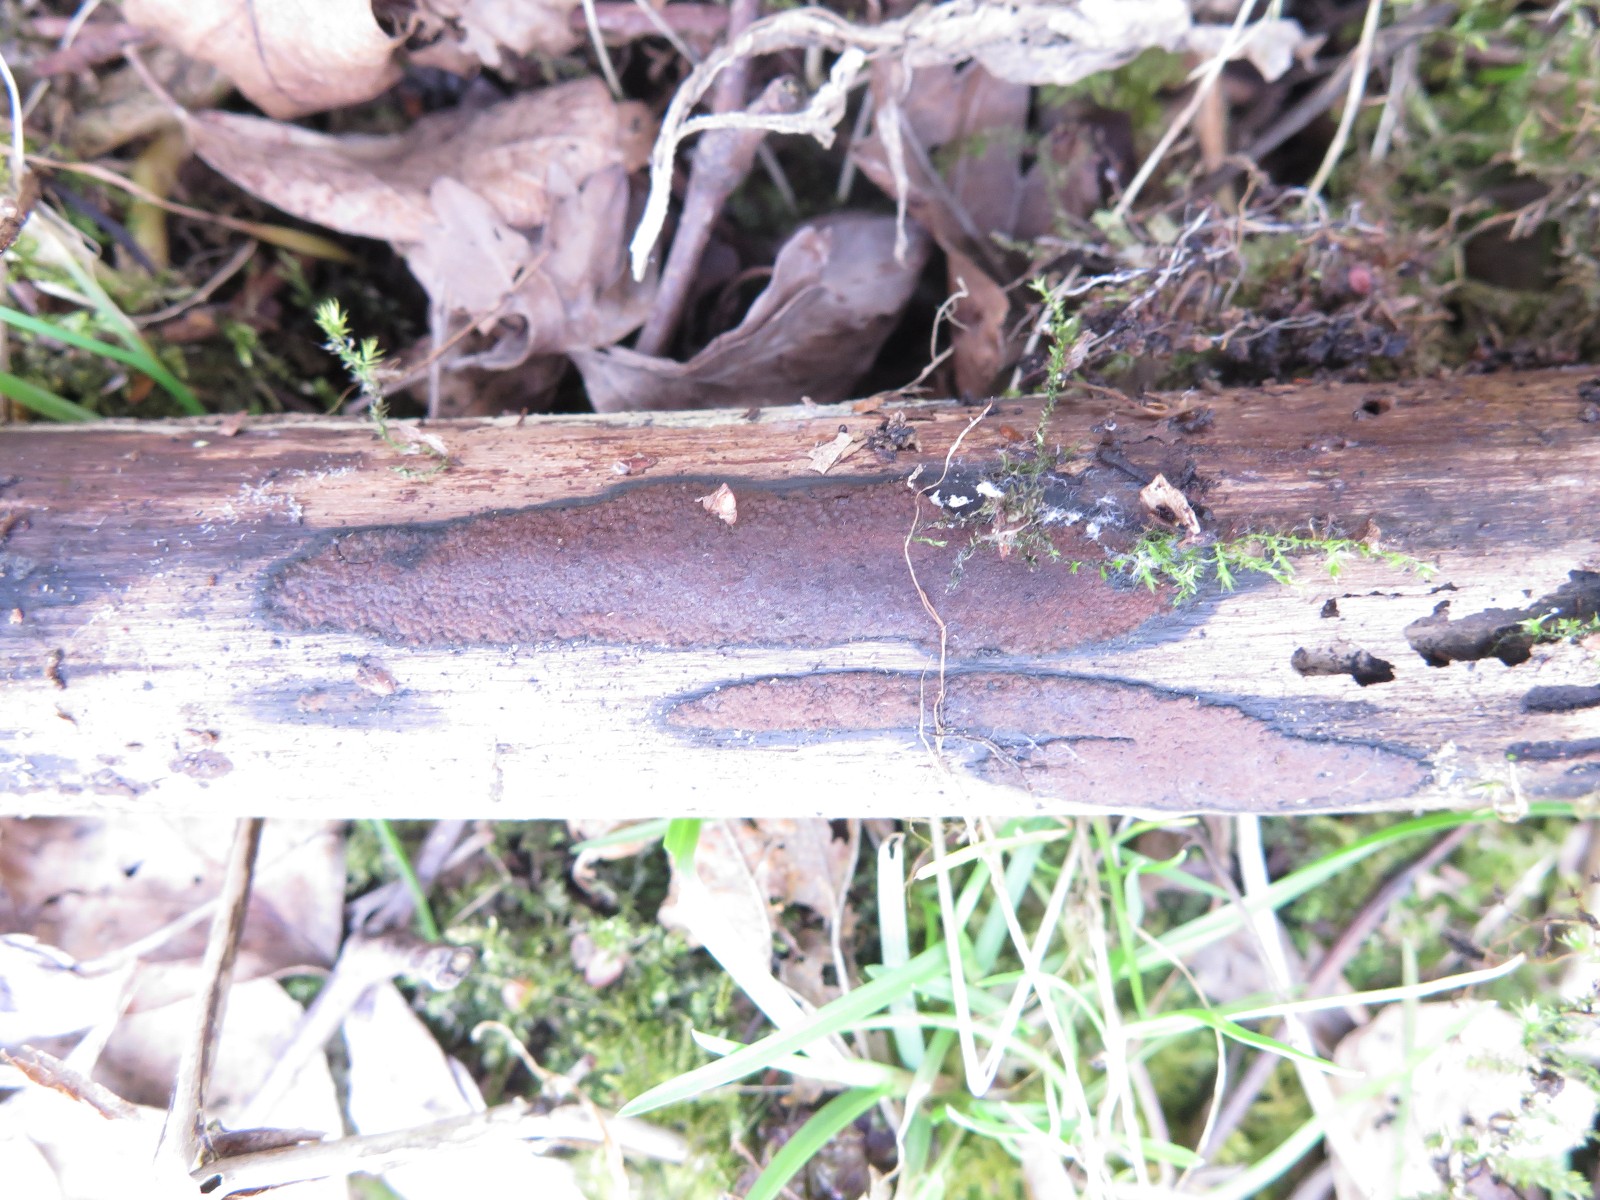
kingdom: Fungi
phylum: Ascomycota
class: Sordariomycetes
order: Xylariales
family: Hypoxylaceae
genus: Hypoxylon
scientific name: Hypoxylon petriniae
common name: nedsænket kulbær
